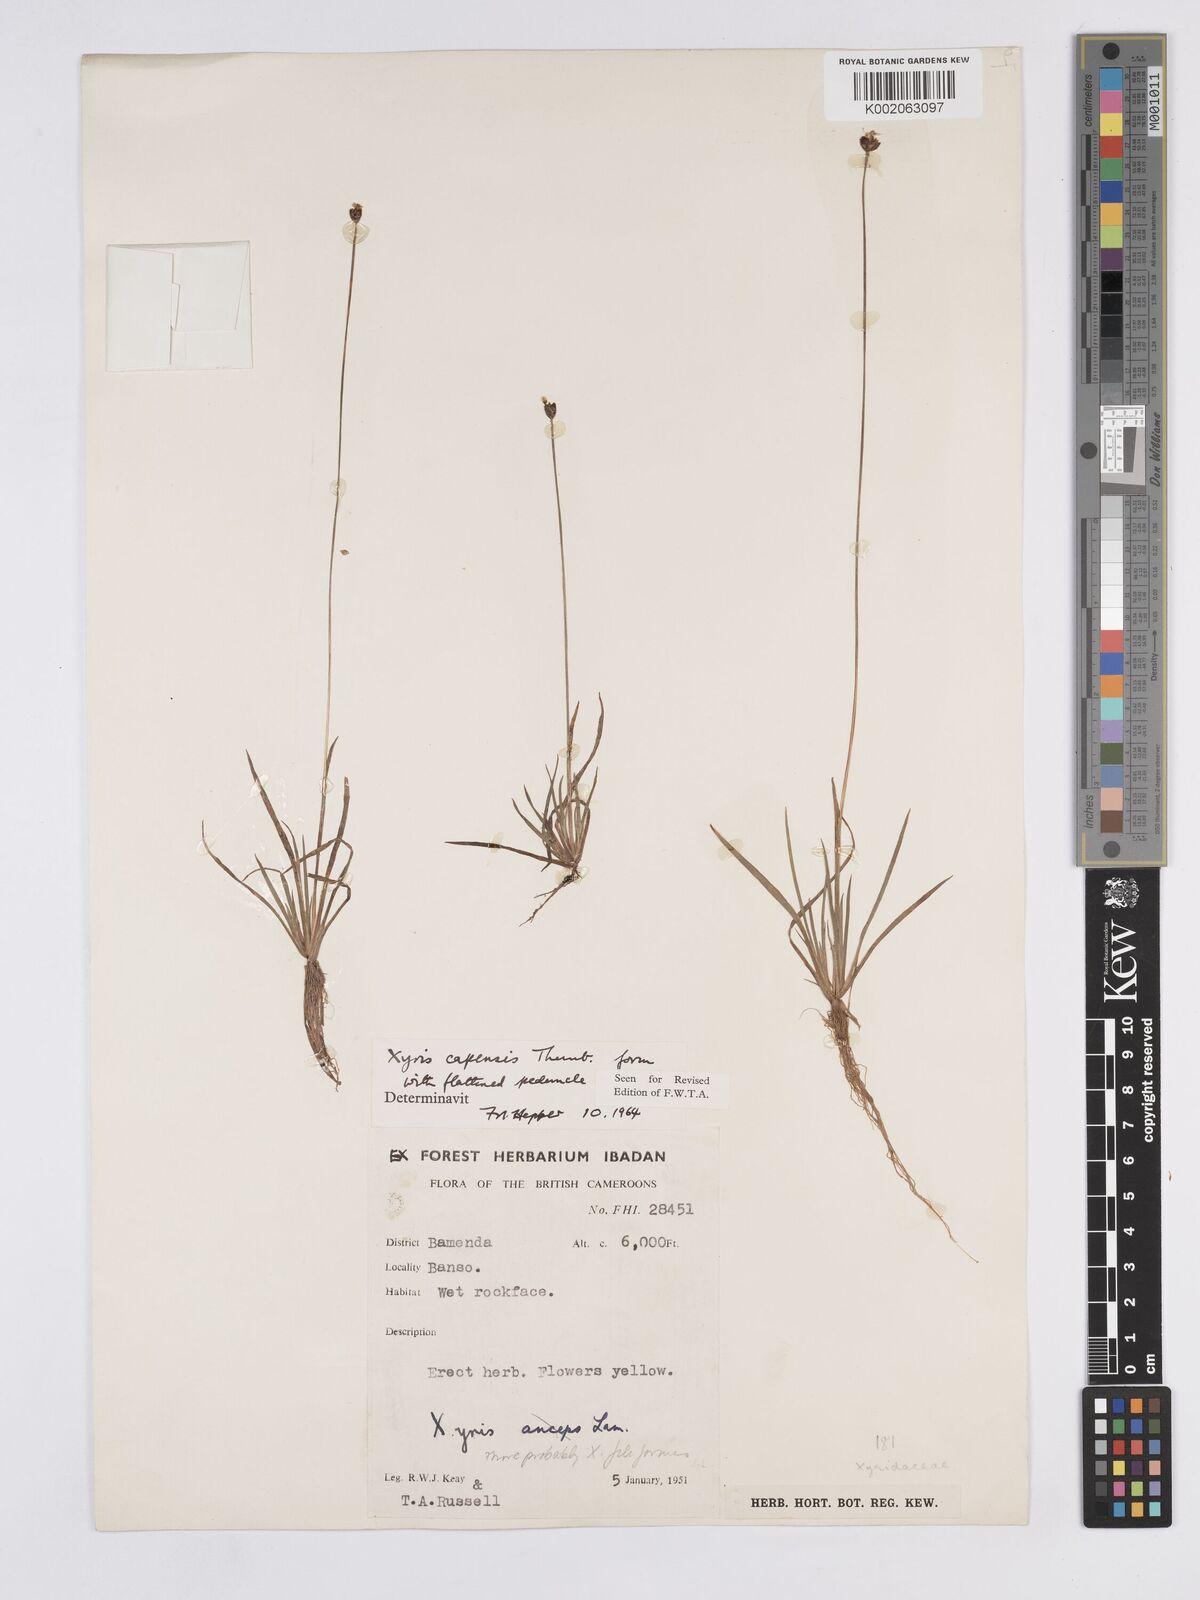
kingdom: Plantae
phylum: Tracheophyta
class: Liliopsida
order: Poales
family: Xyridaceae
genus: Xyris
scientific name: Xyris capensis
